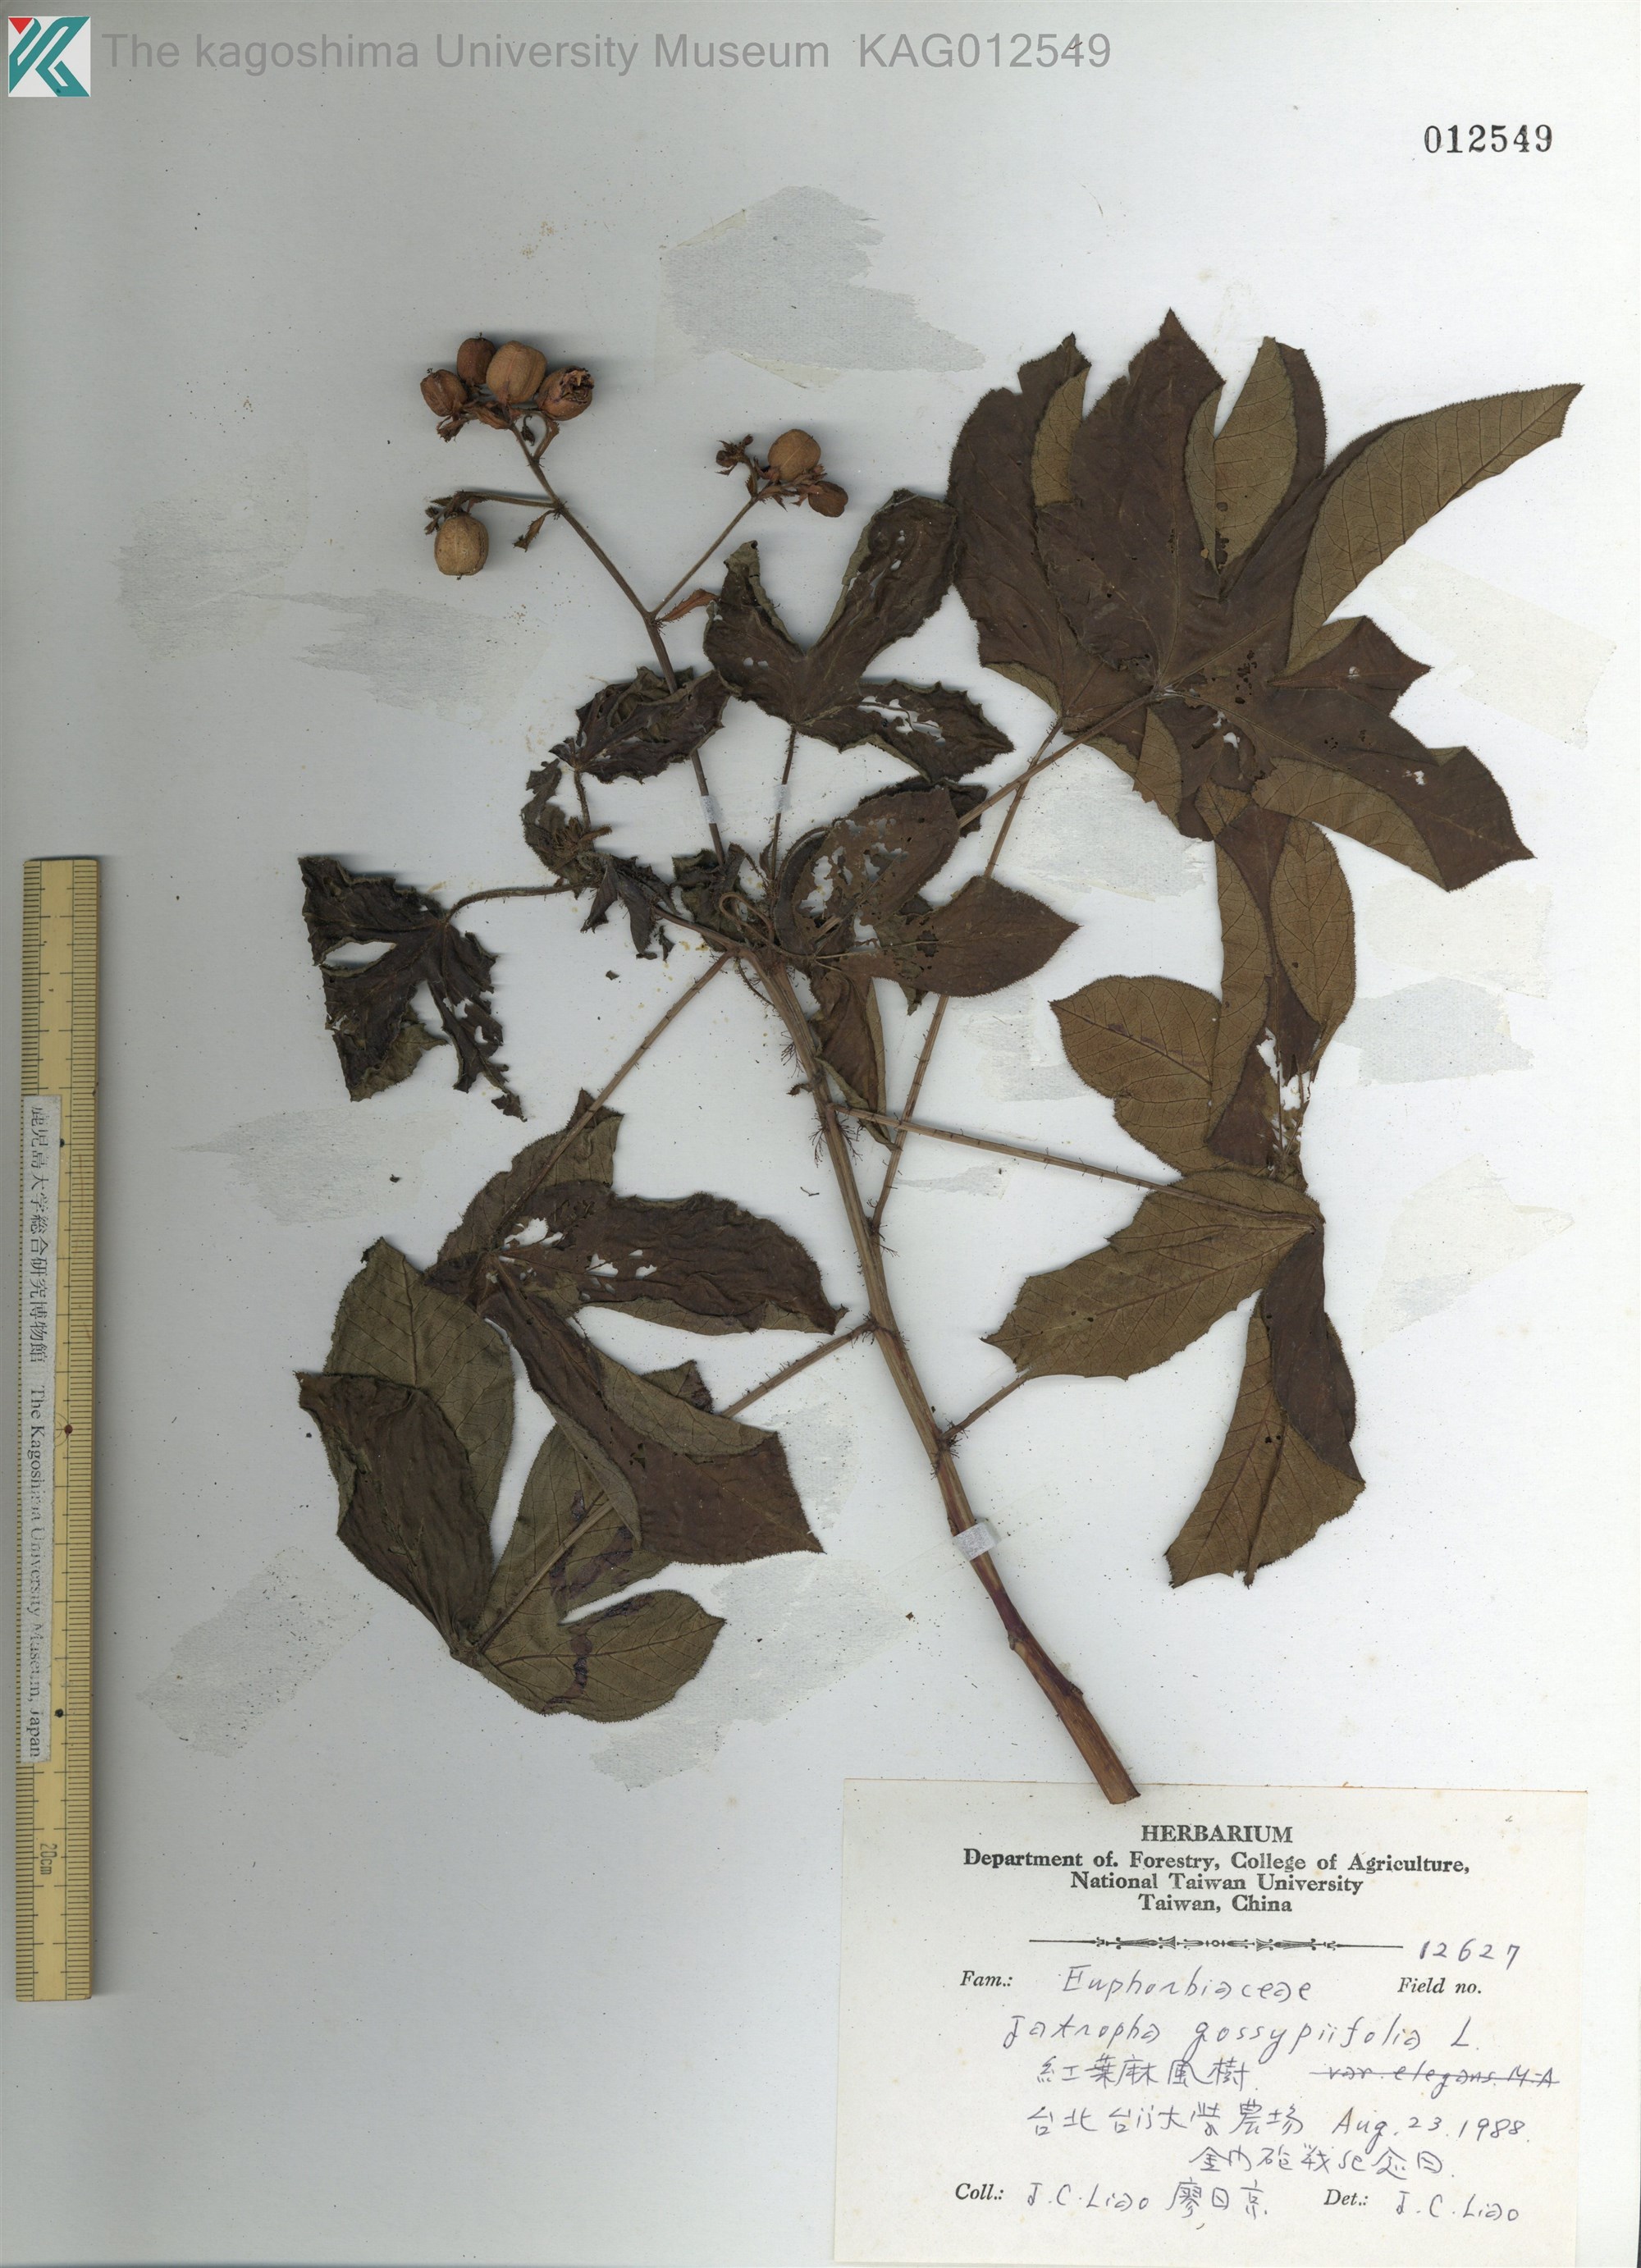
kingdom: Plantae
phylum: Tracheophyta
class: Magnoliopsida
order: Malpighiales
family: Euphorbiaceae
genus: Jatropha
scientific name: Jatropha gossypiifolia
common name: Bellyache bush
